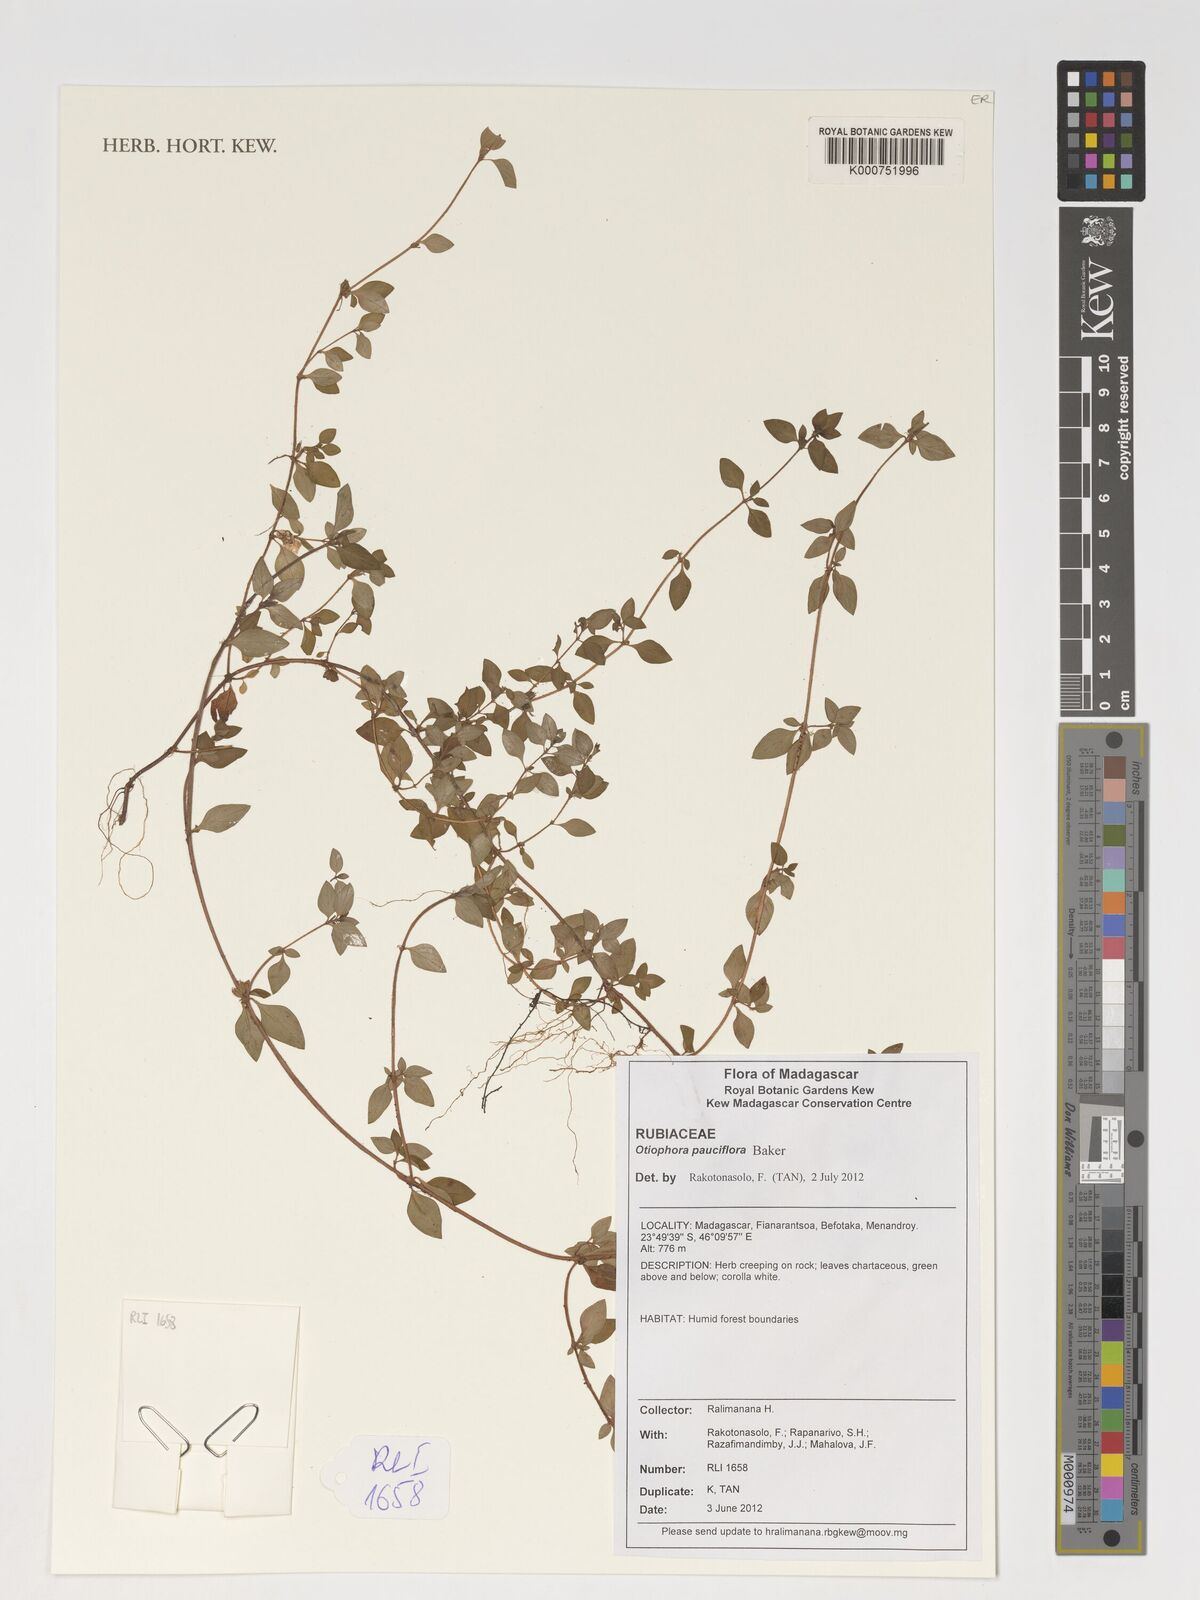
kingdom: Plantae
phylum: Tracheophyta
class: Magnoliopsida
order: Gentianales
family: Rubiaceae
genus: Otiophora
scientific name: Otiophora pauciflora
